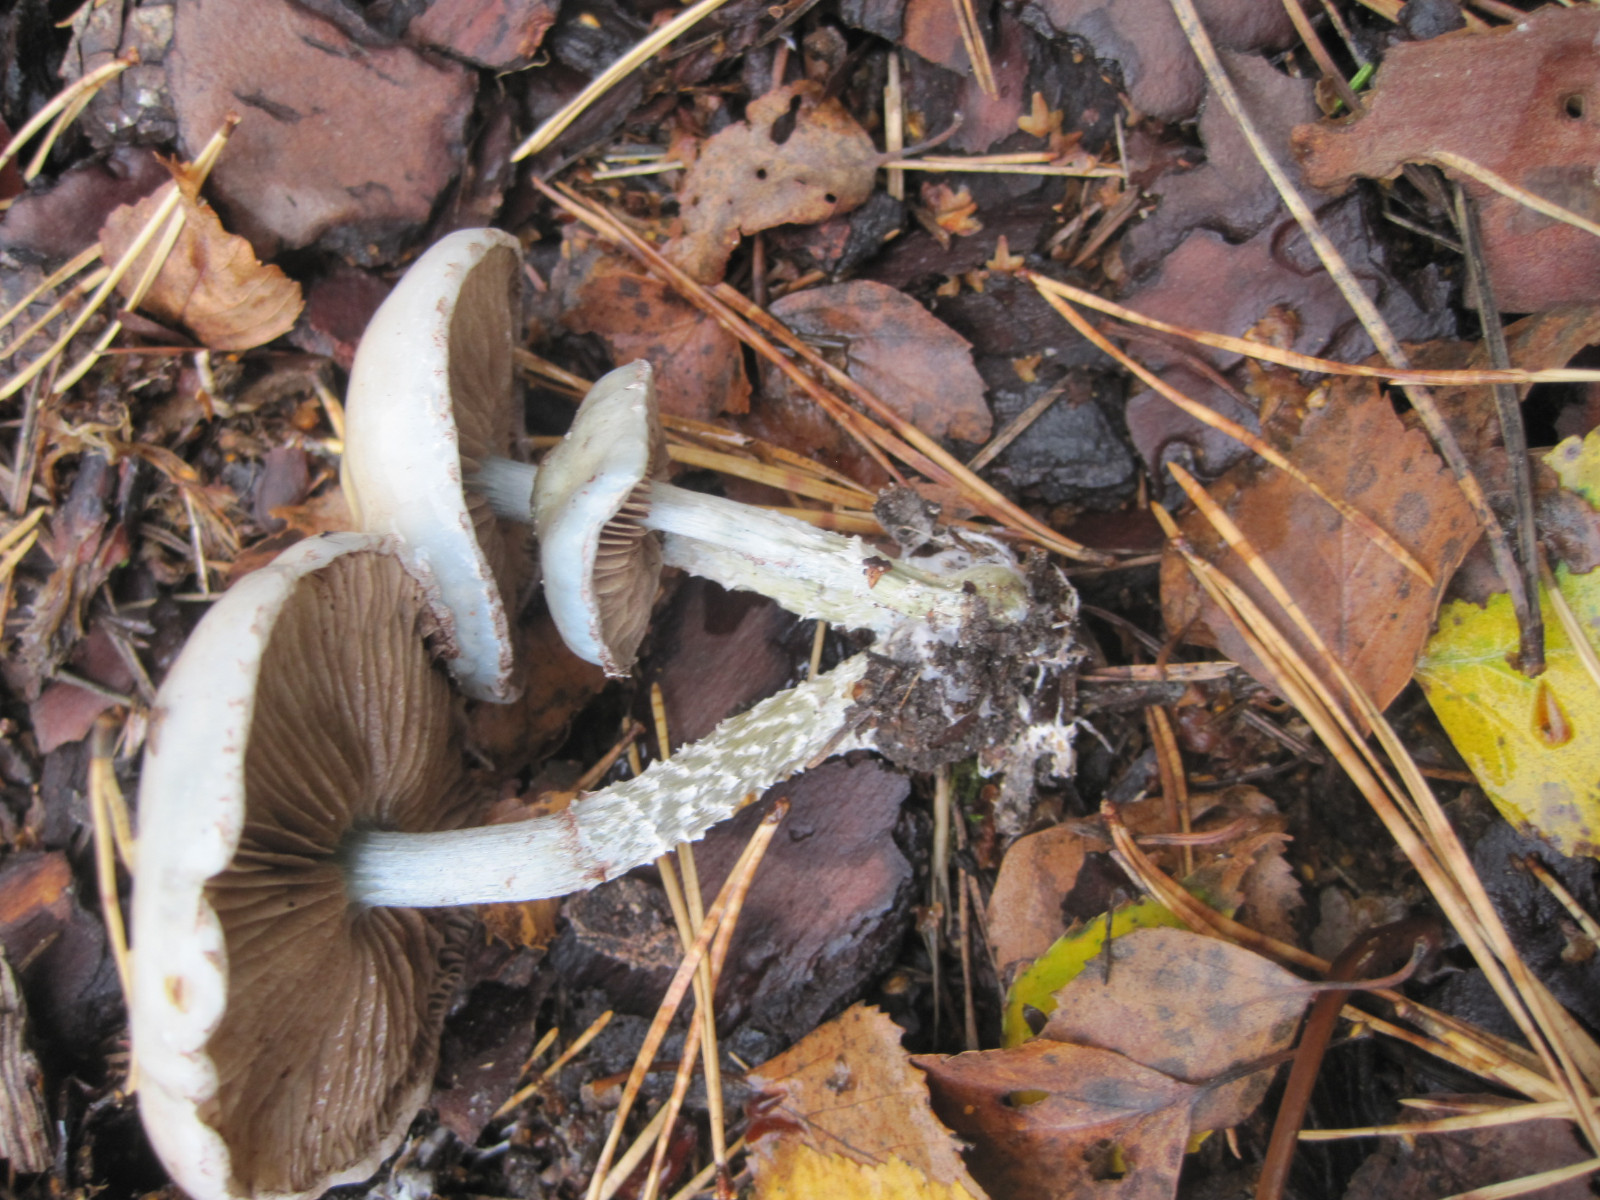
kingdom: Fungi
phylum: Basidiomycota
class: Agaricomycetes
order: Agaricales
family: Strophariaceae
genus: Stropharia
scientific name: Stropharia aeruginosa
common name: spanskgrøn bredblad
